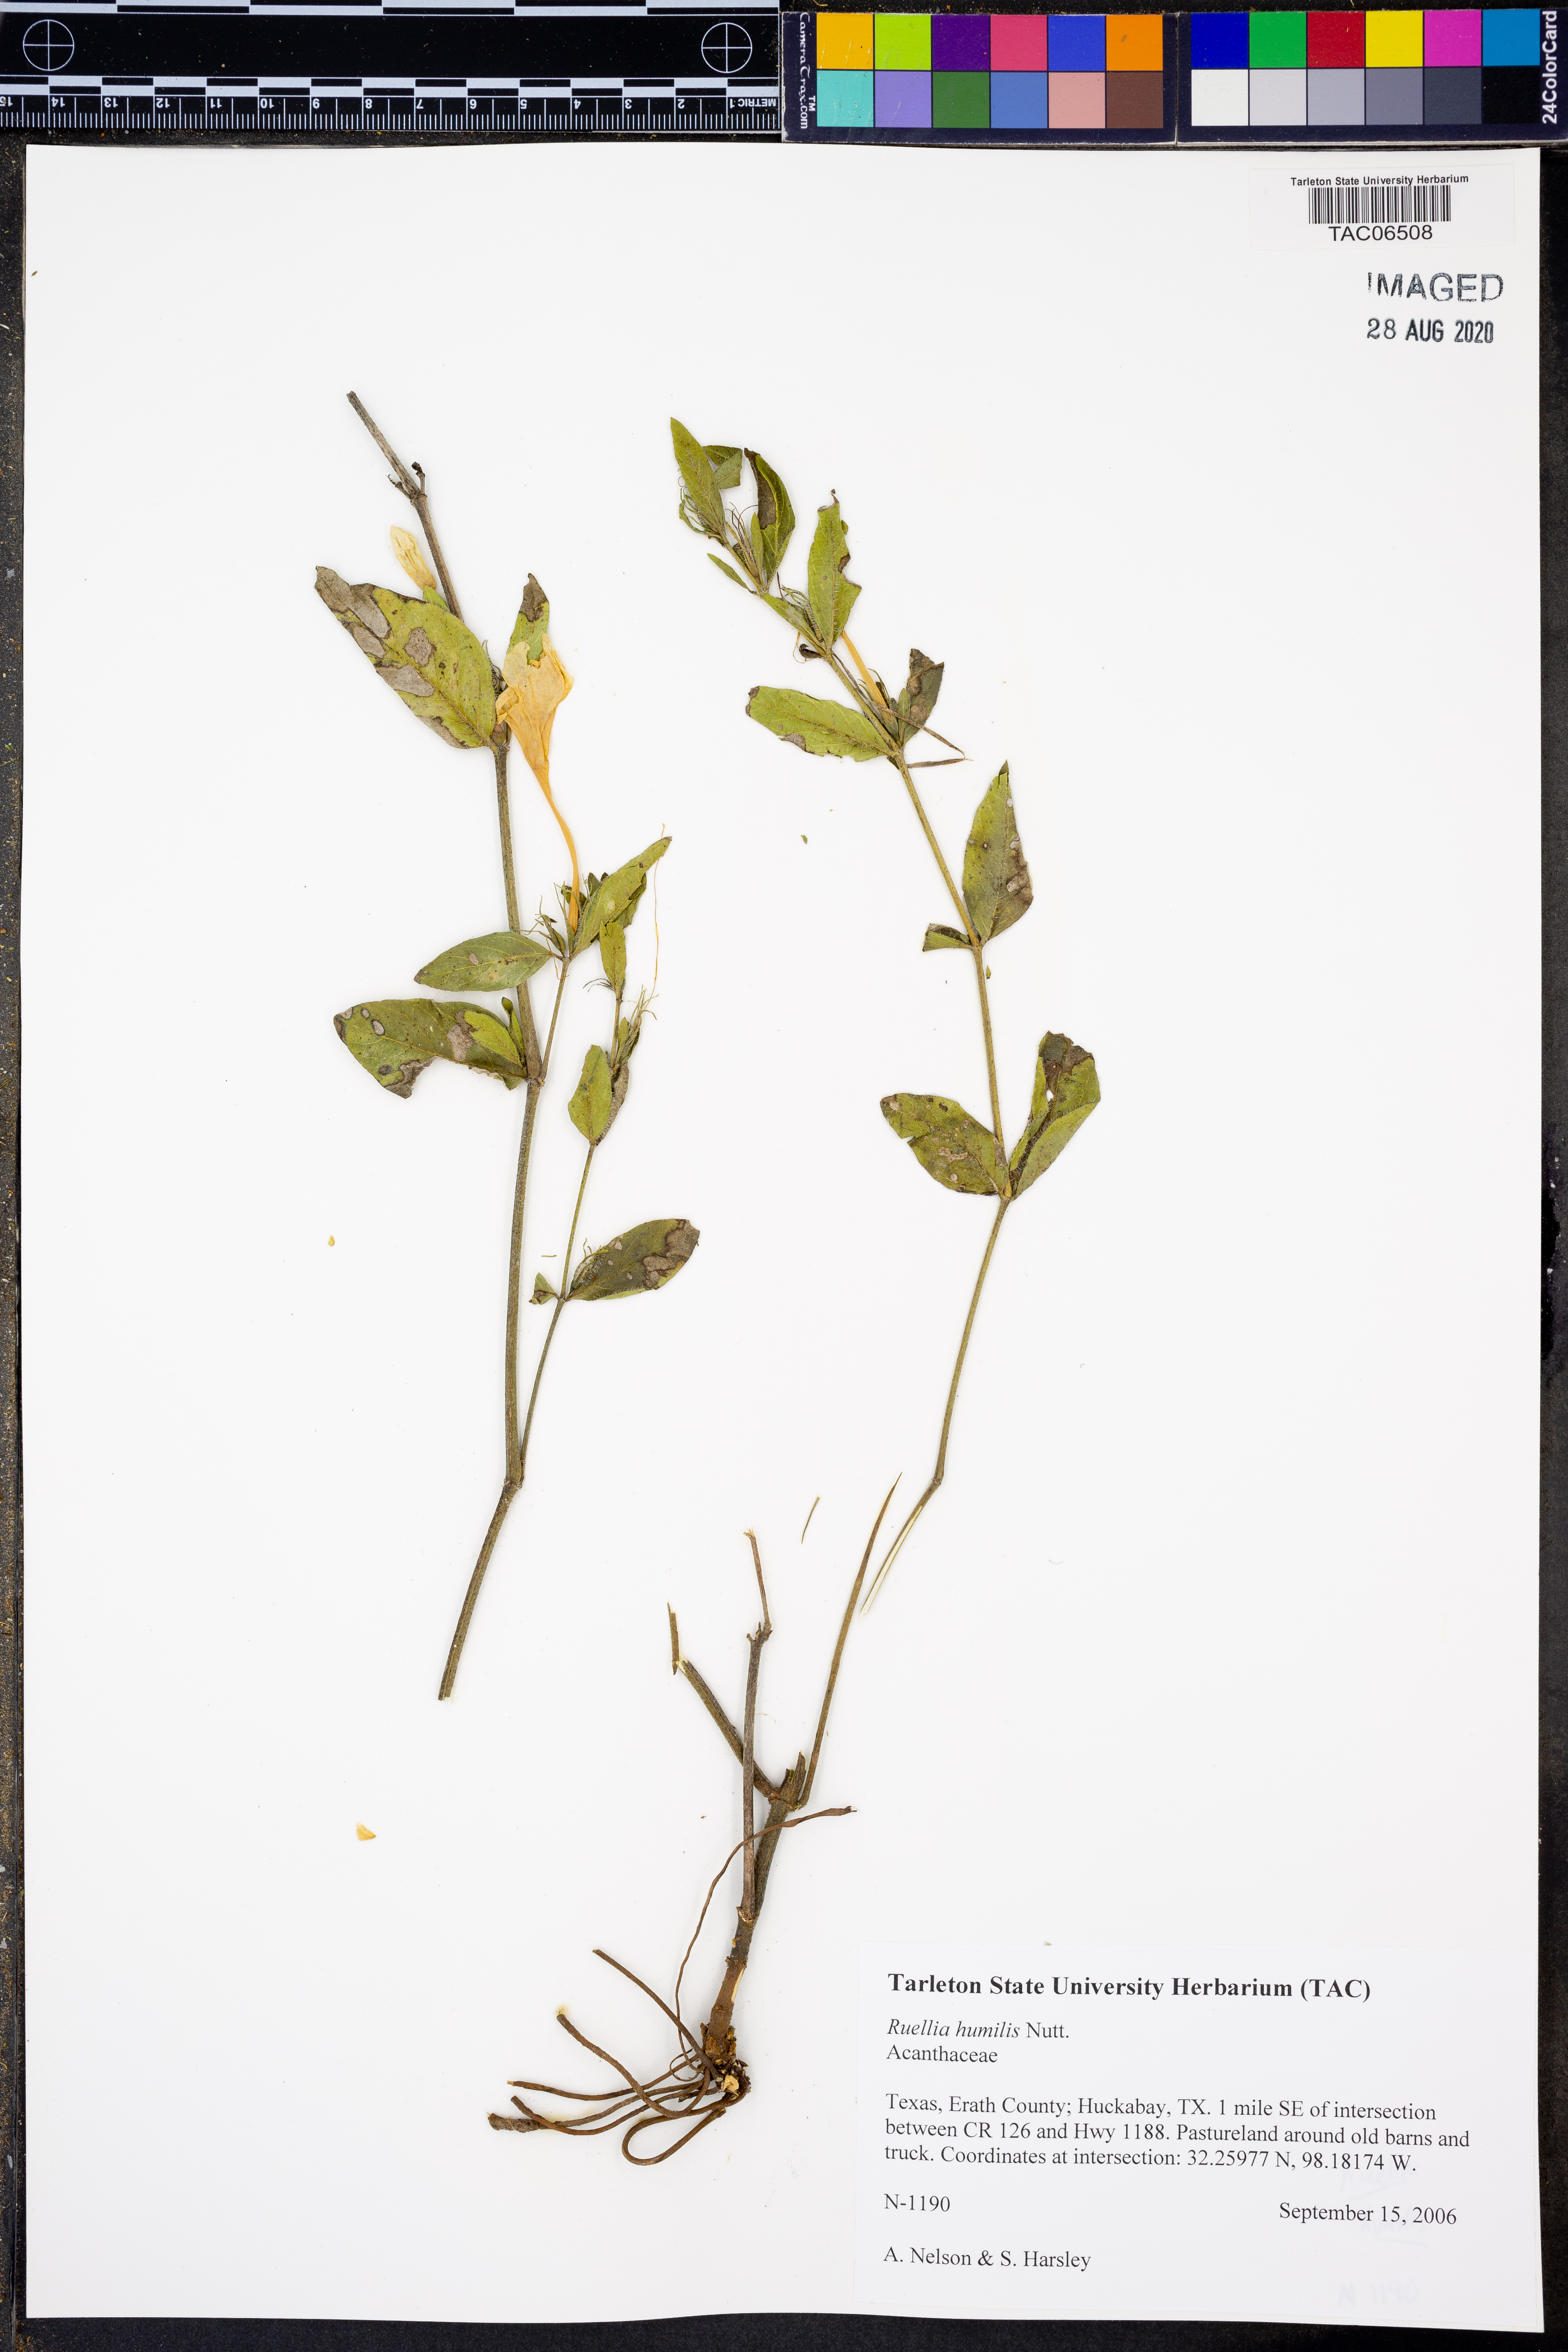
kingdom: Plantae
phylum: Tracheophyta
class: Magnoliopsida
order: Lamiales
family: Acanthaceae
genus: Ruellia
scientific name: Ruellia humilis
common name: Fringe-leaf ruellia
